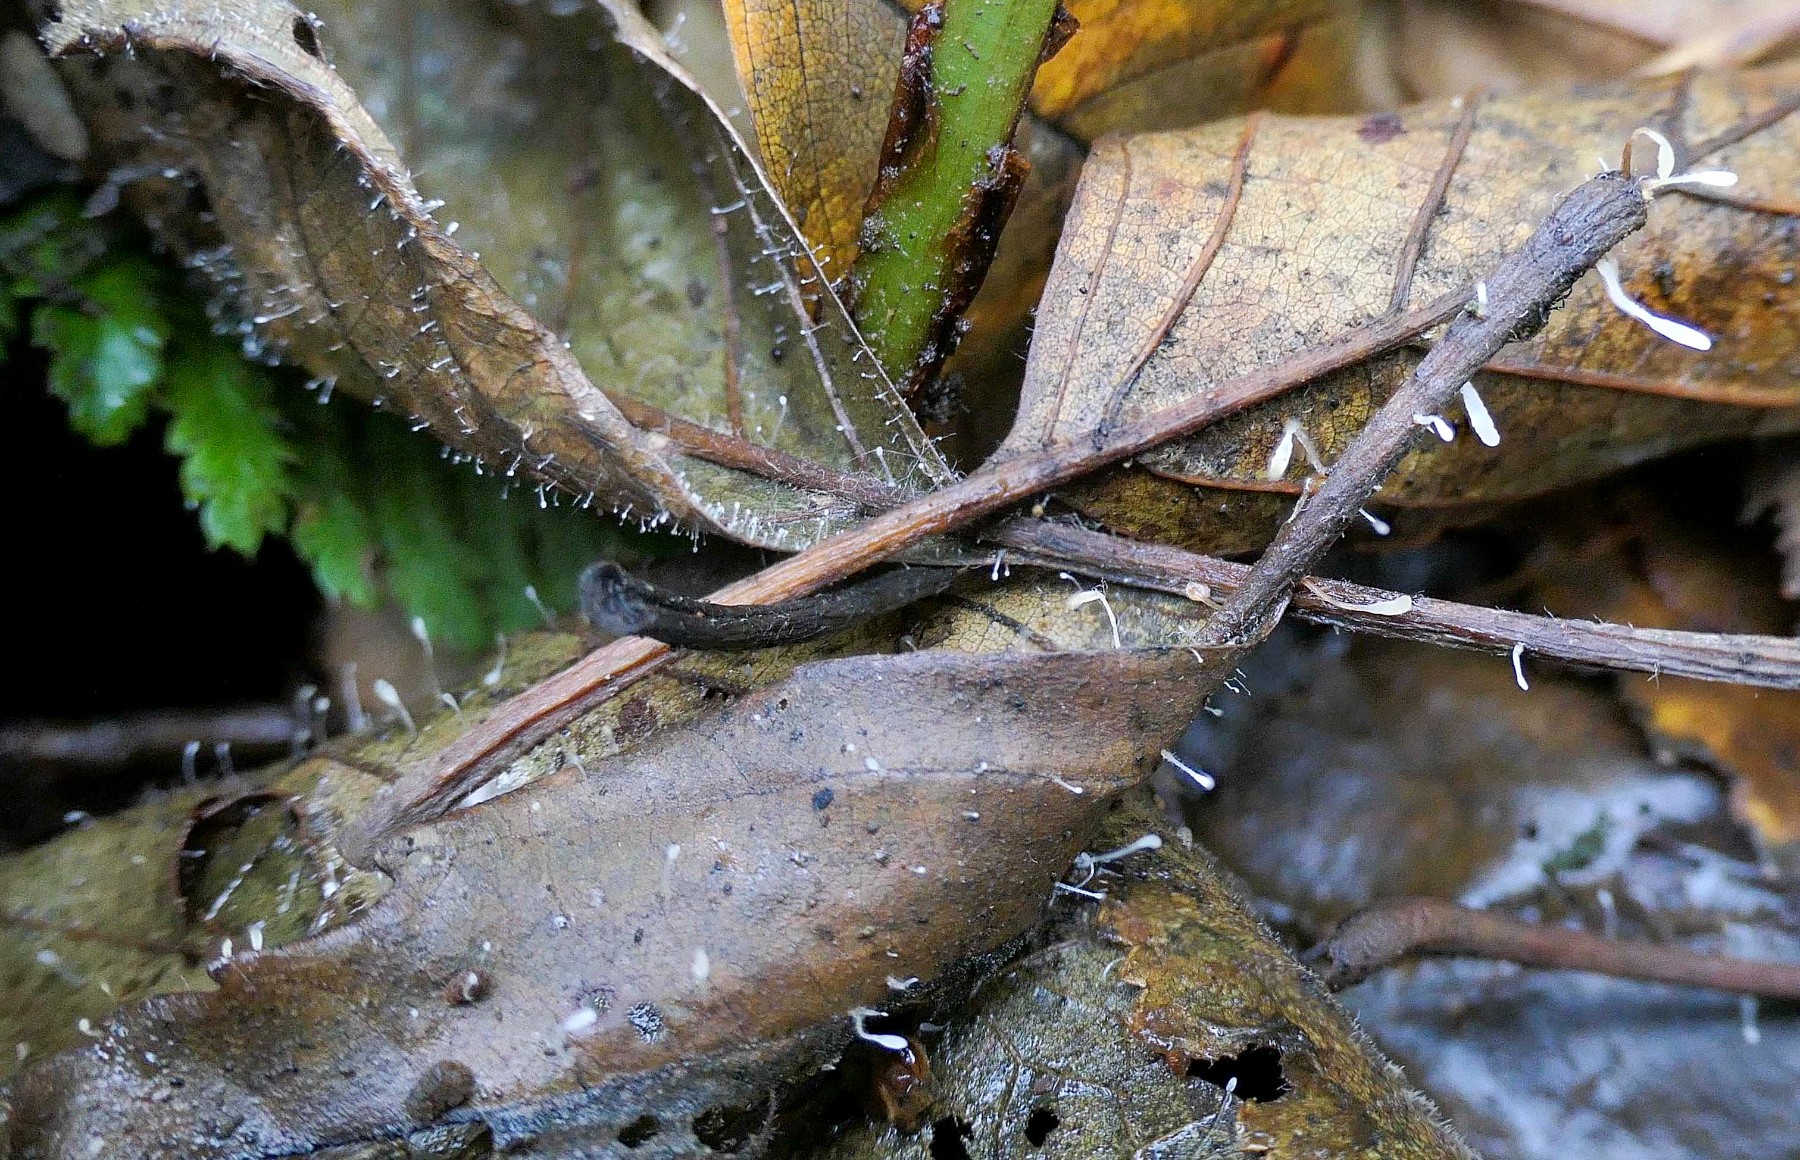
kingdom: Fungi
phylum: Basidiomycota
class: Agaricomycetes
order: Agaricales
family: Typhulaceae
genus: Typhula
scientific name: Typhula setipes
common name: liden trådkølle
